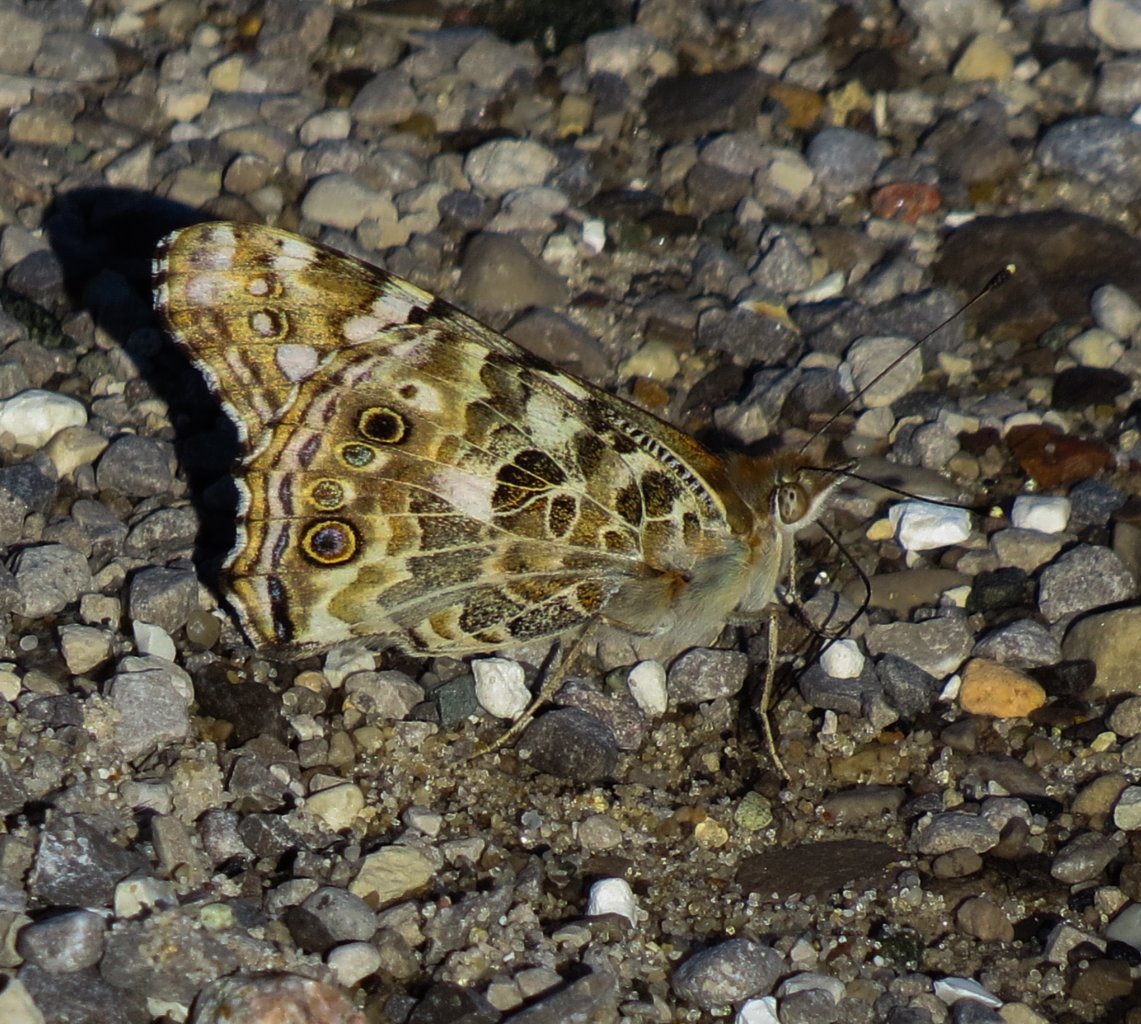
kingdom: Animalia
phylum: Arthropoda
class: Insecta
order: Lepidoptera
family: Nymphalidae
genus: Vanessa
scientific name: Vanessa cardui
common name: Painted Lady
